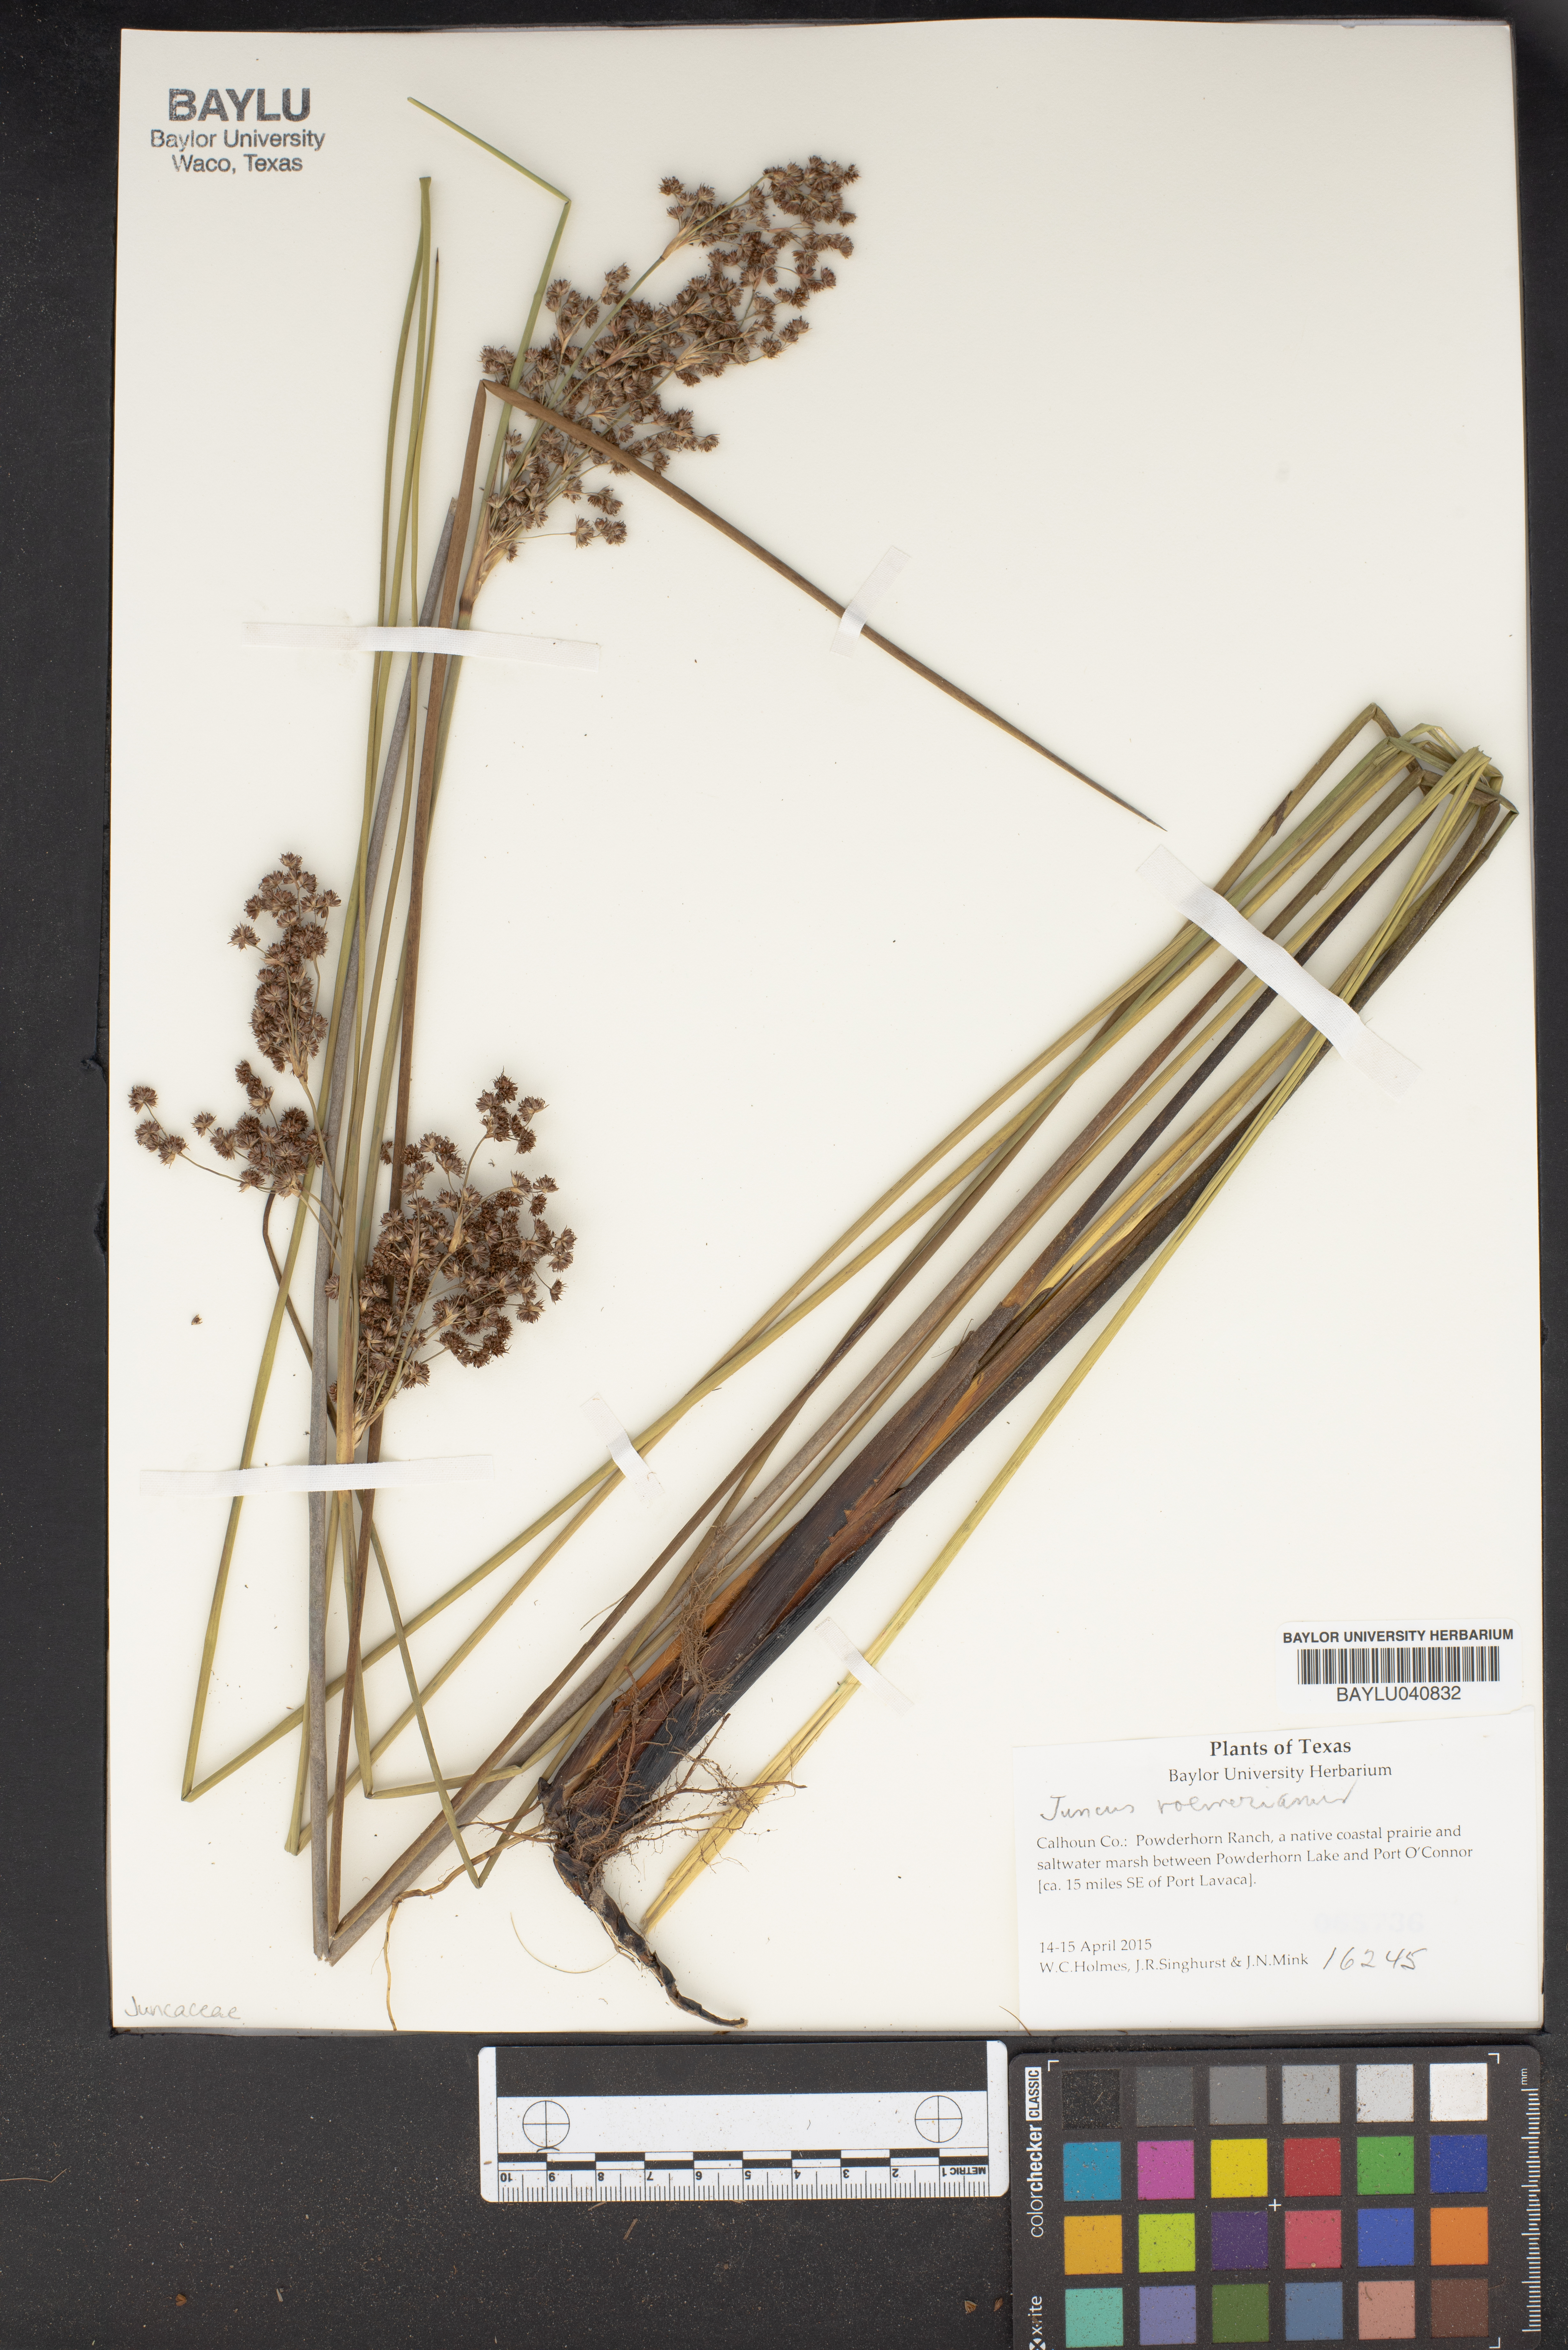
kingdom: Plantae
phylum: Tracheophyta
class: Liliopsida
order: Poales
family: Juncaceae
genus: Juncus
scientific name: Juncus roemerianus
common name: Roemer's rush
